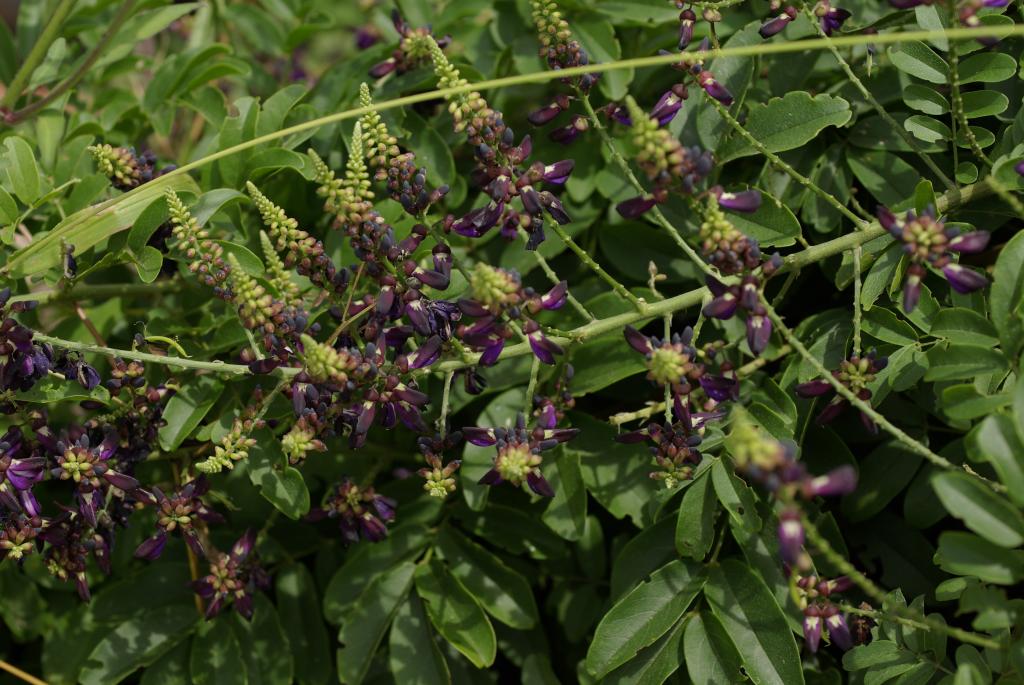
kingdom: Plantae
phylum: Tracheophyta
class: Magnoliopsida
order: Fabales
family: Fabaceae
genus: Wisteriopsis
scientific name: Wisteriopsis reticulata
